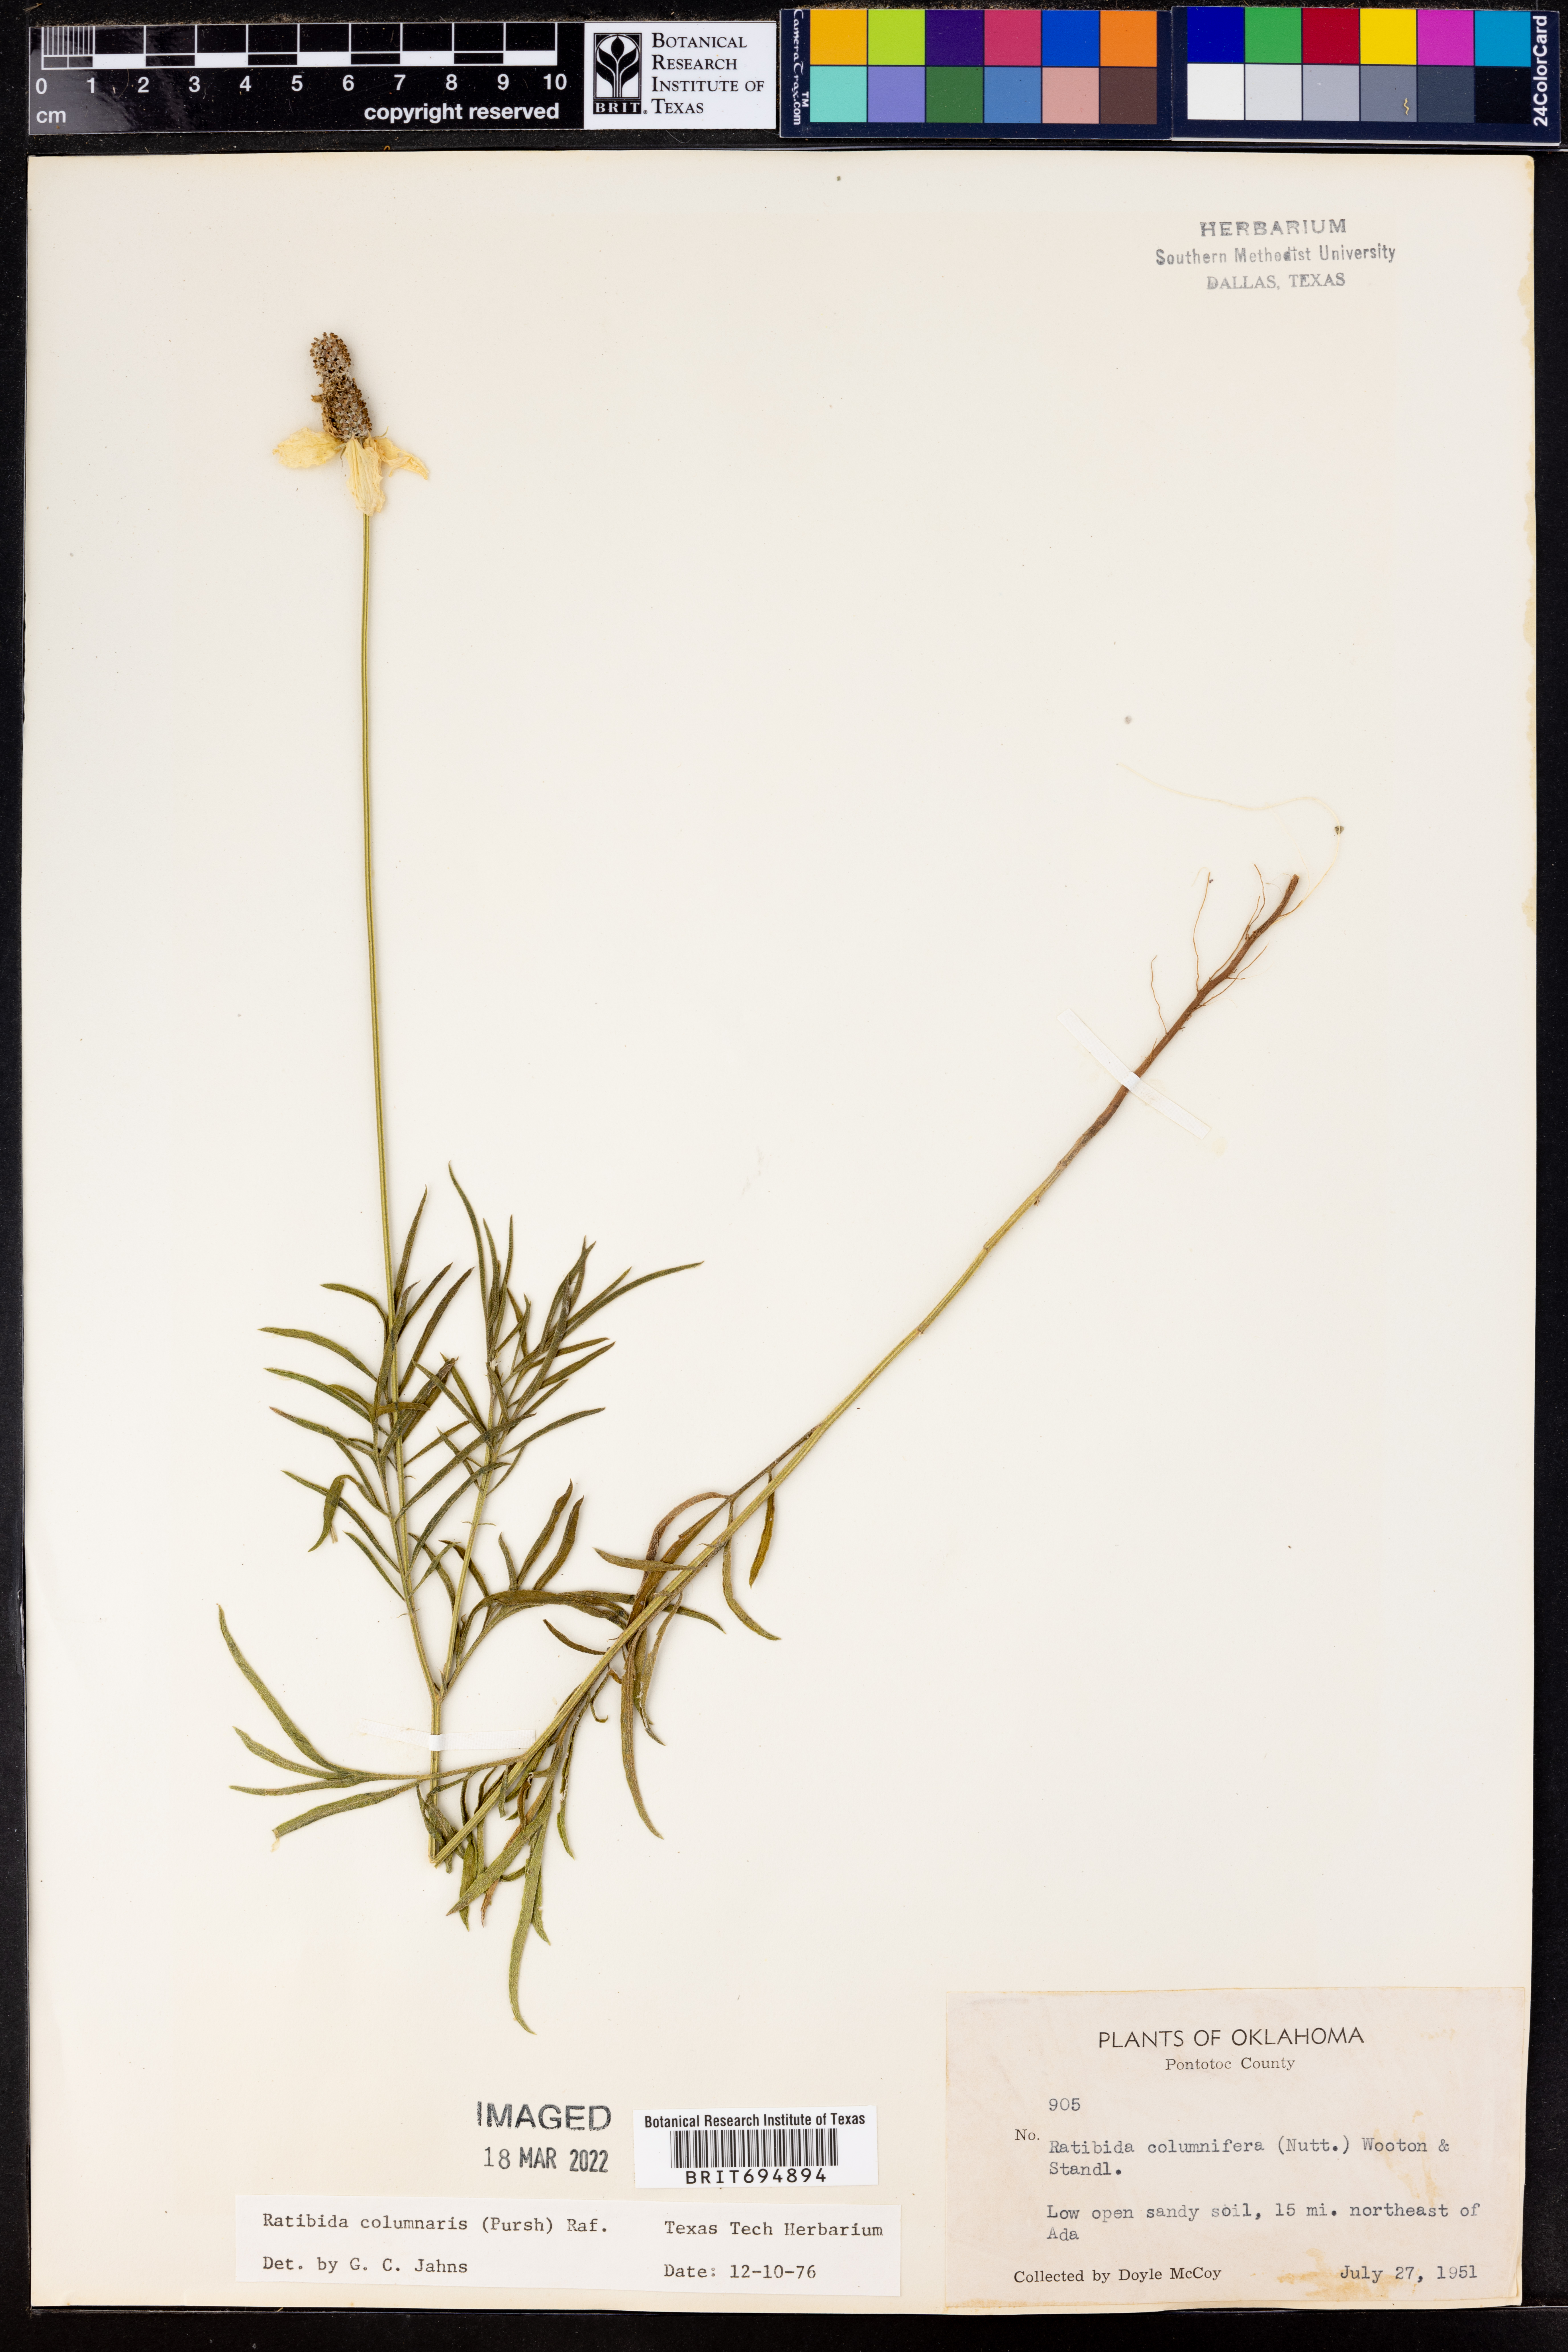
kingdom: Plantae
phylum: Tracheophyta
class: Magnoliopsida
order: Asterales
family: Asteraceae
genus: Ratibida
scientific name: Ratibida columnifera
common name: Prairie coneflower
